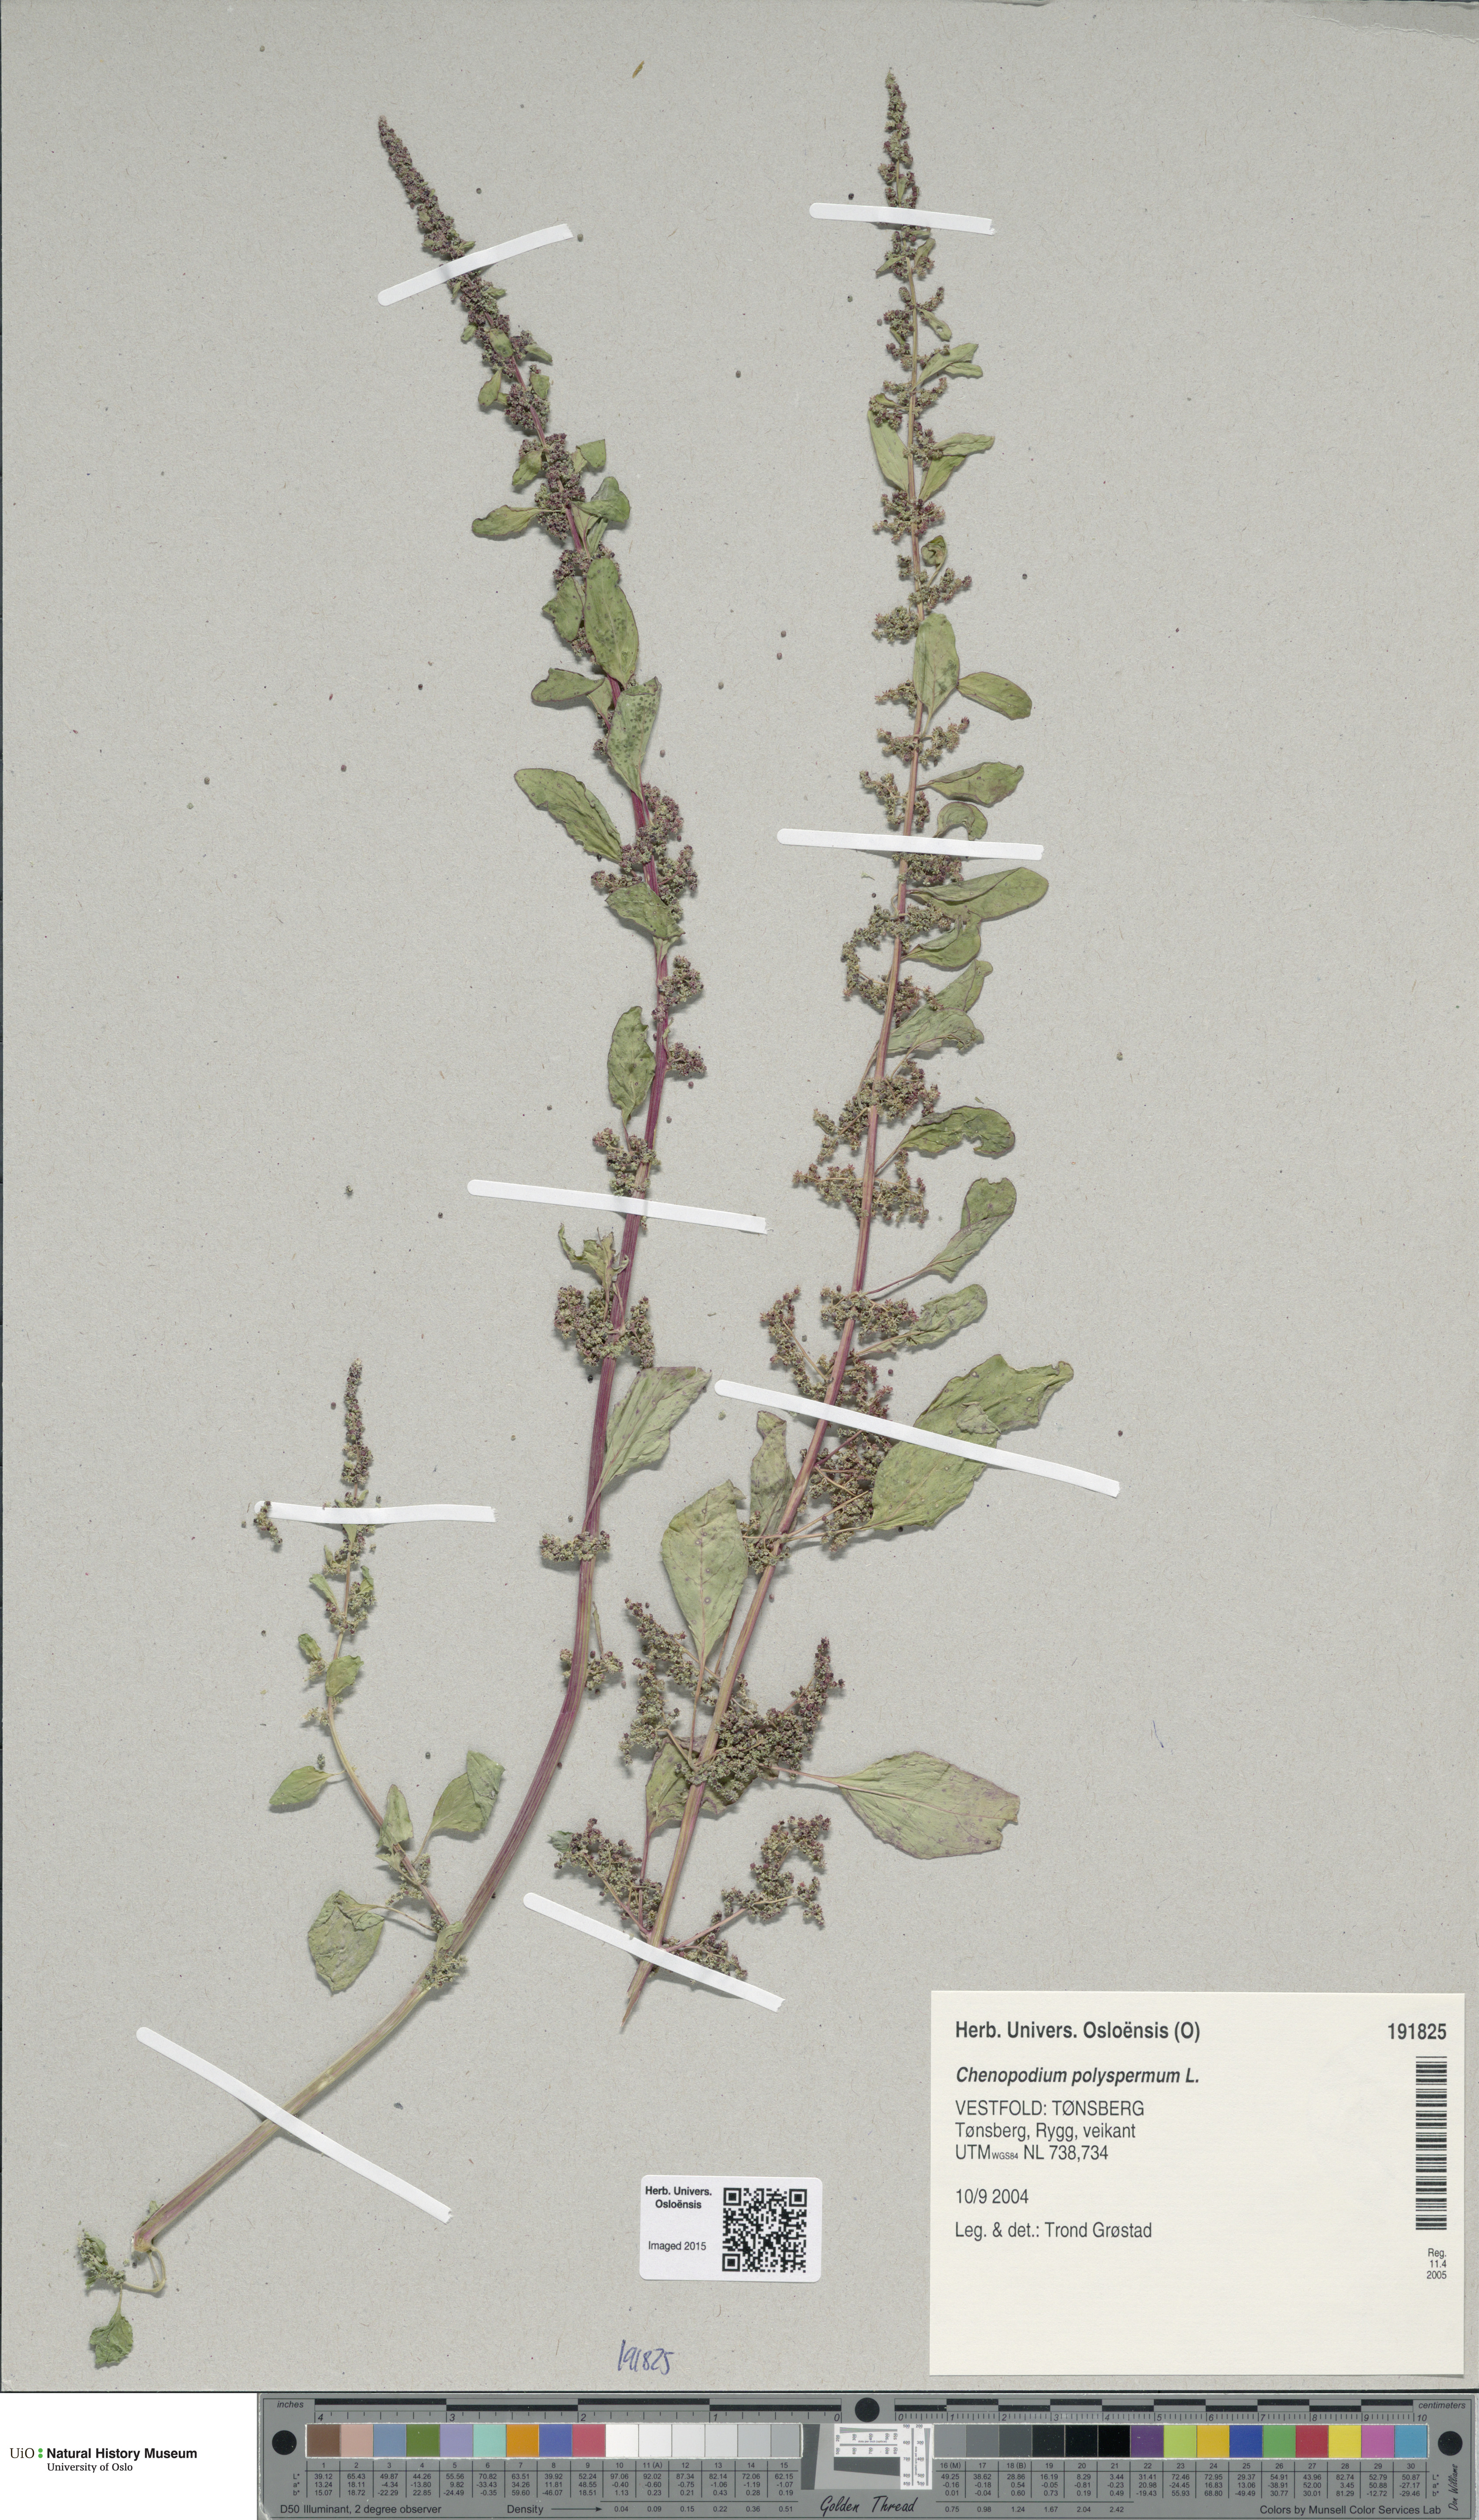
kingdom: Plantae
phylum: Tracheophyta
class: Magnoliopsida
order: Caryophyllales
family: Amaranthaceae
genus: Lipandra
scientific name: Lipandra polysperma
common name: Many-seed goosefoot
